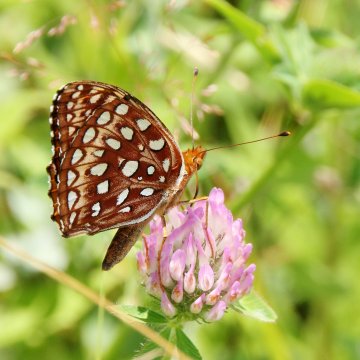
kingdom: Animalia
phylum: Arthropoda
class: Insecta
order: Lepidoptera
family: Nymphalidae
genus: Speyeria
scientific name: Speyeria aphrodite
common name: Aphrodite Fritillary
